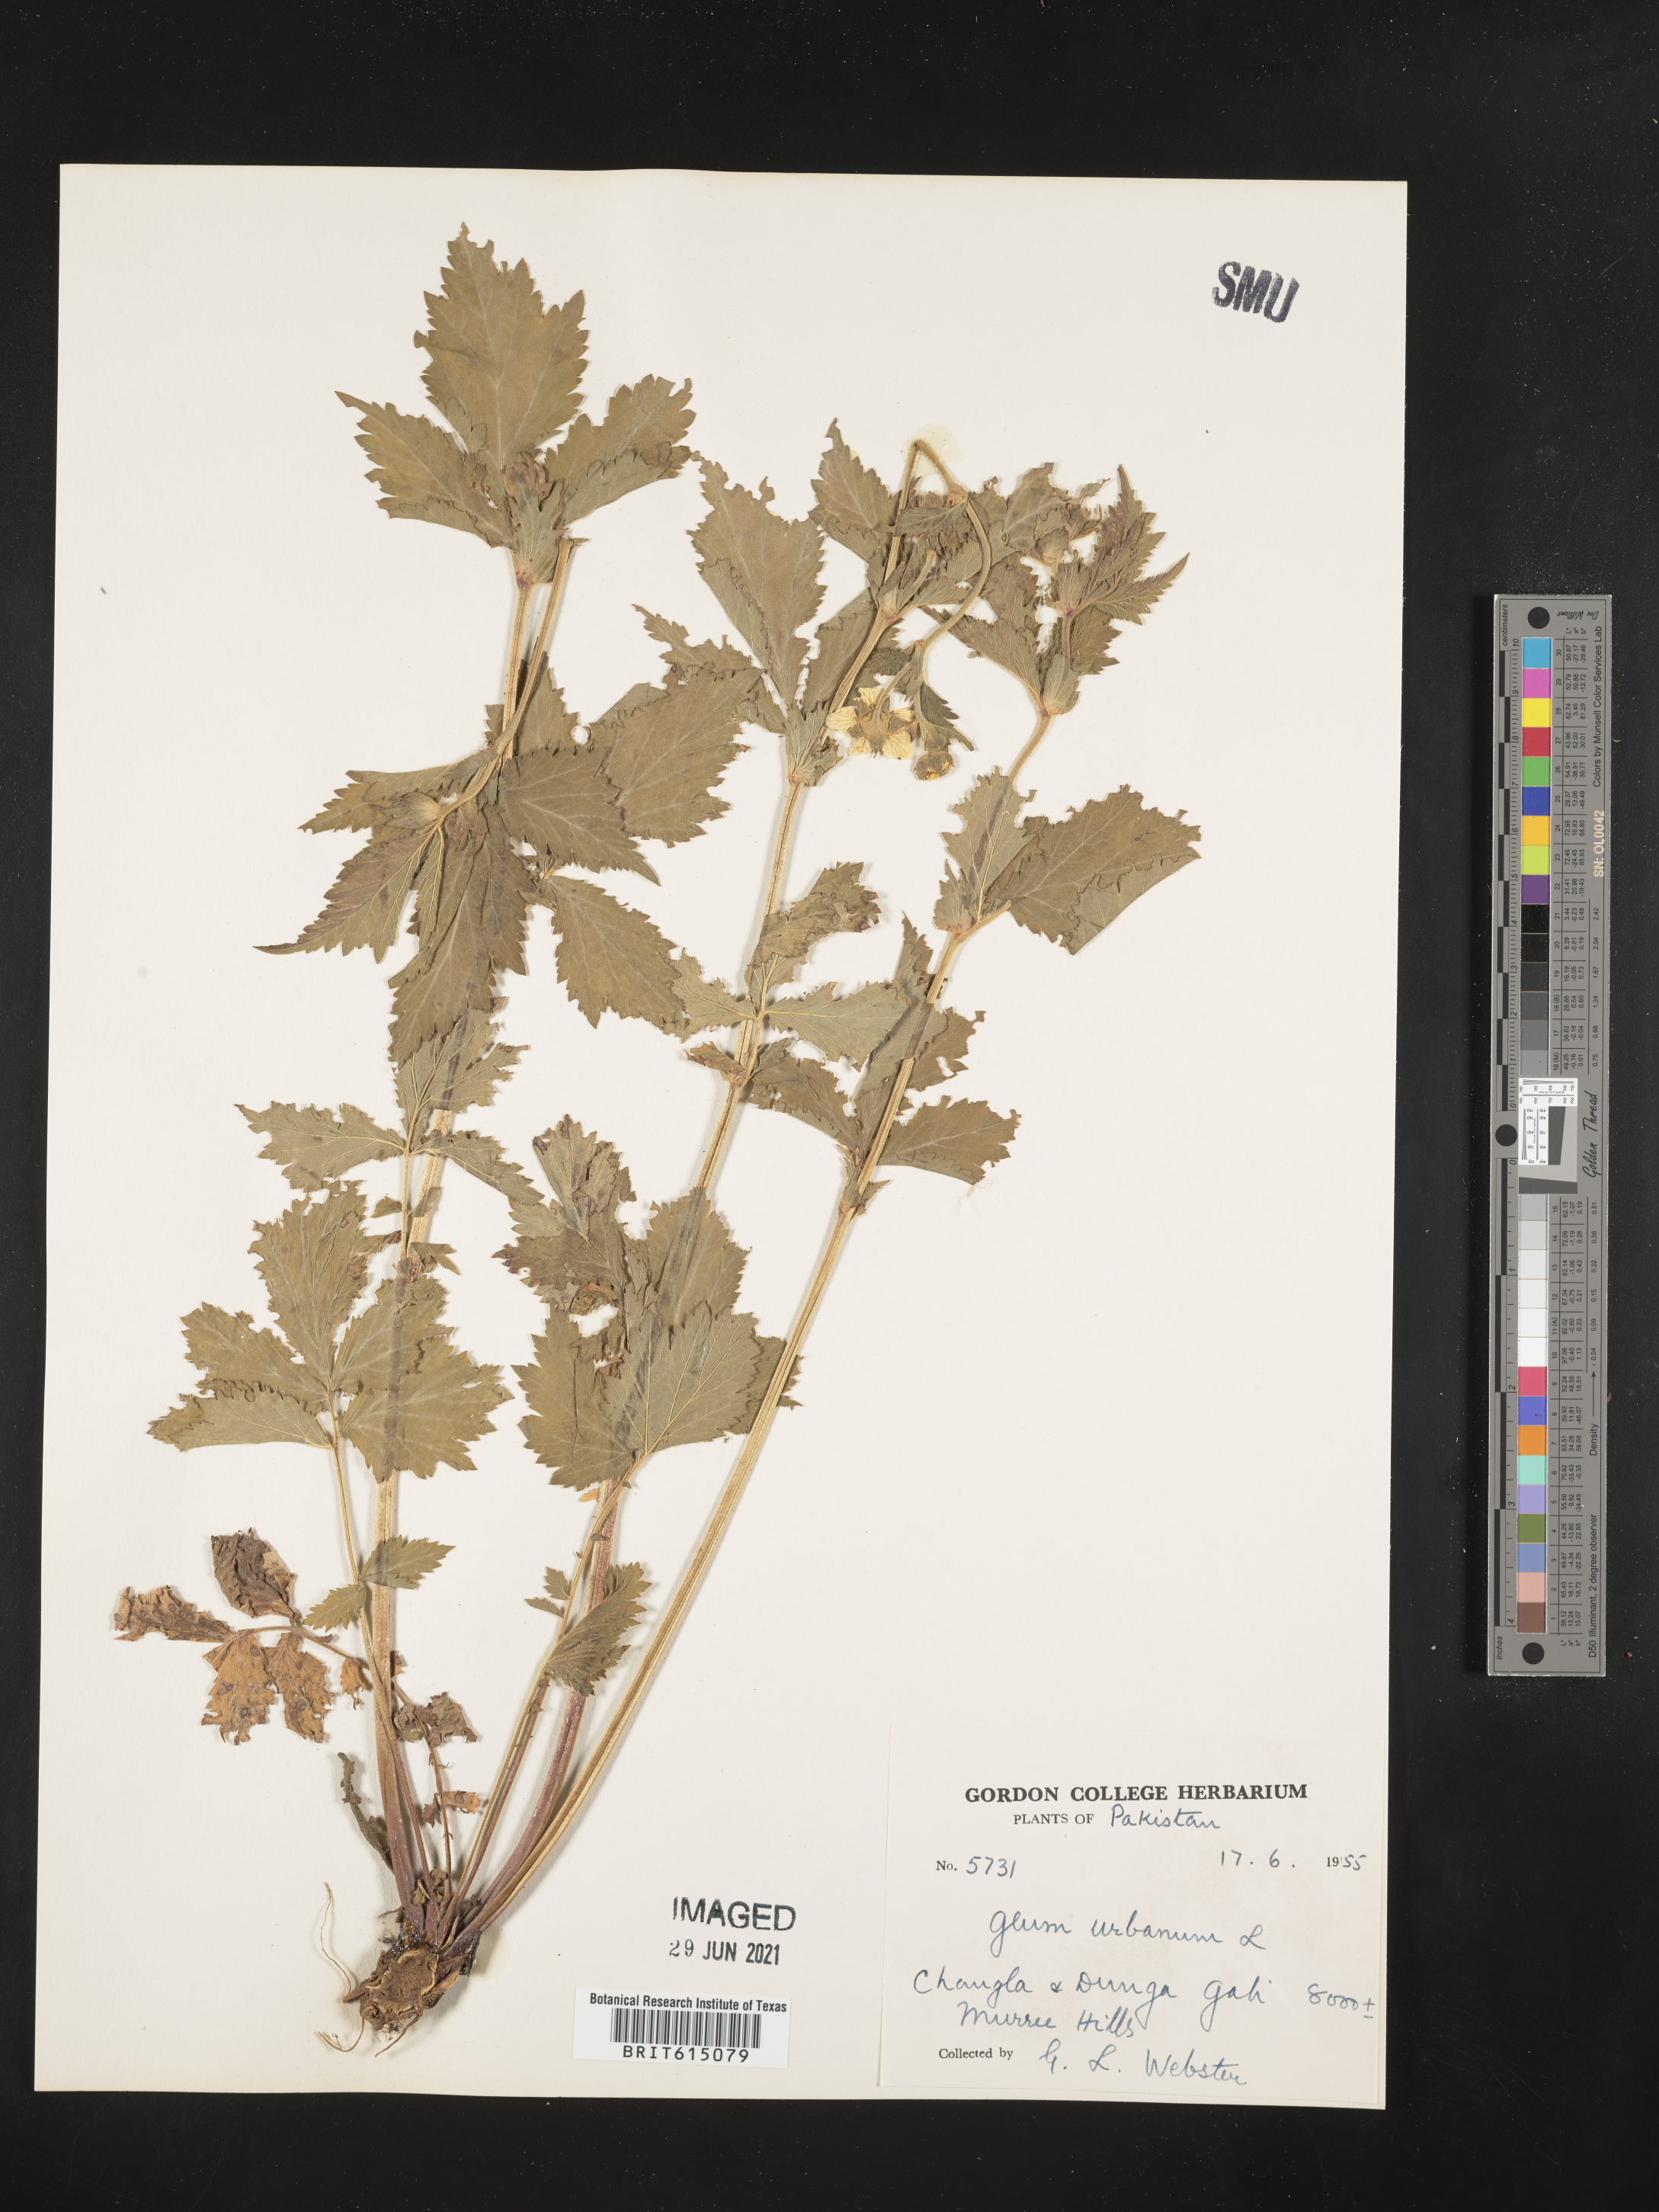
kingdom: Plantae
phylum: Tracheophyta
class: Magnoliopsida
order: Rosales
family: Rosaceae
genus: Geum
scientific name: Geum urbanum
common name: Wood avens
